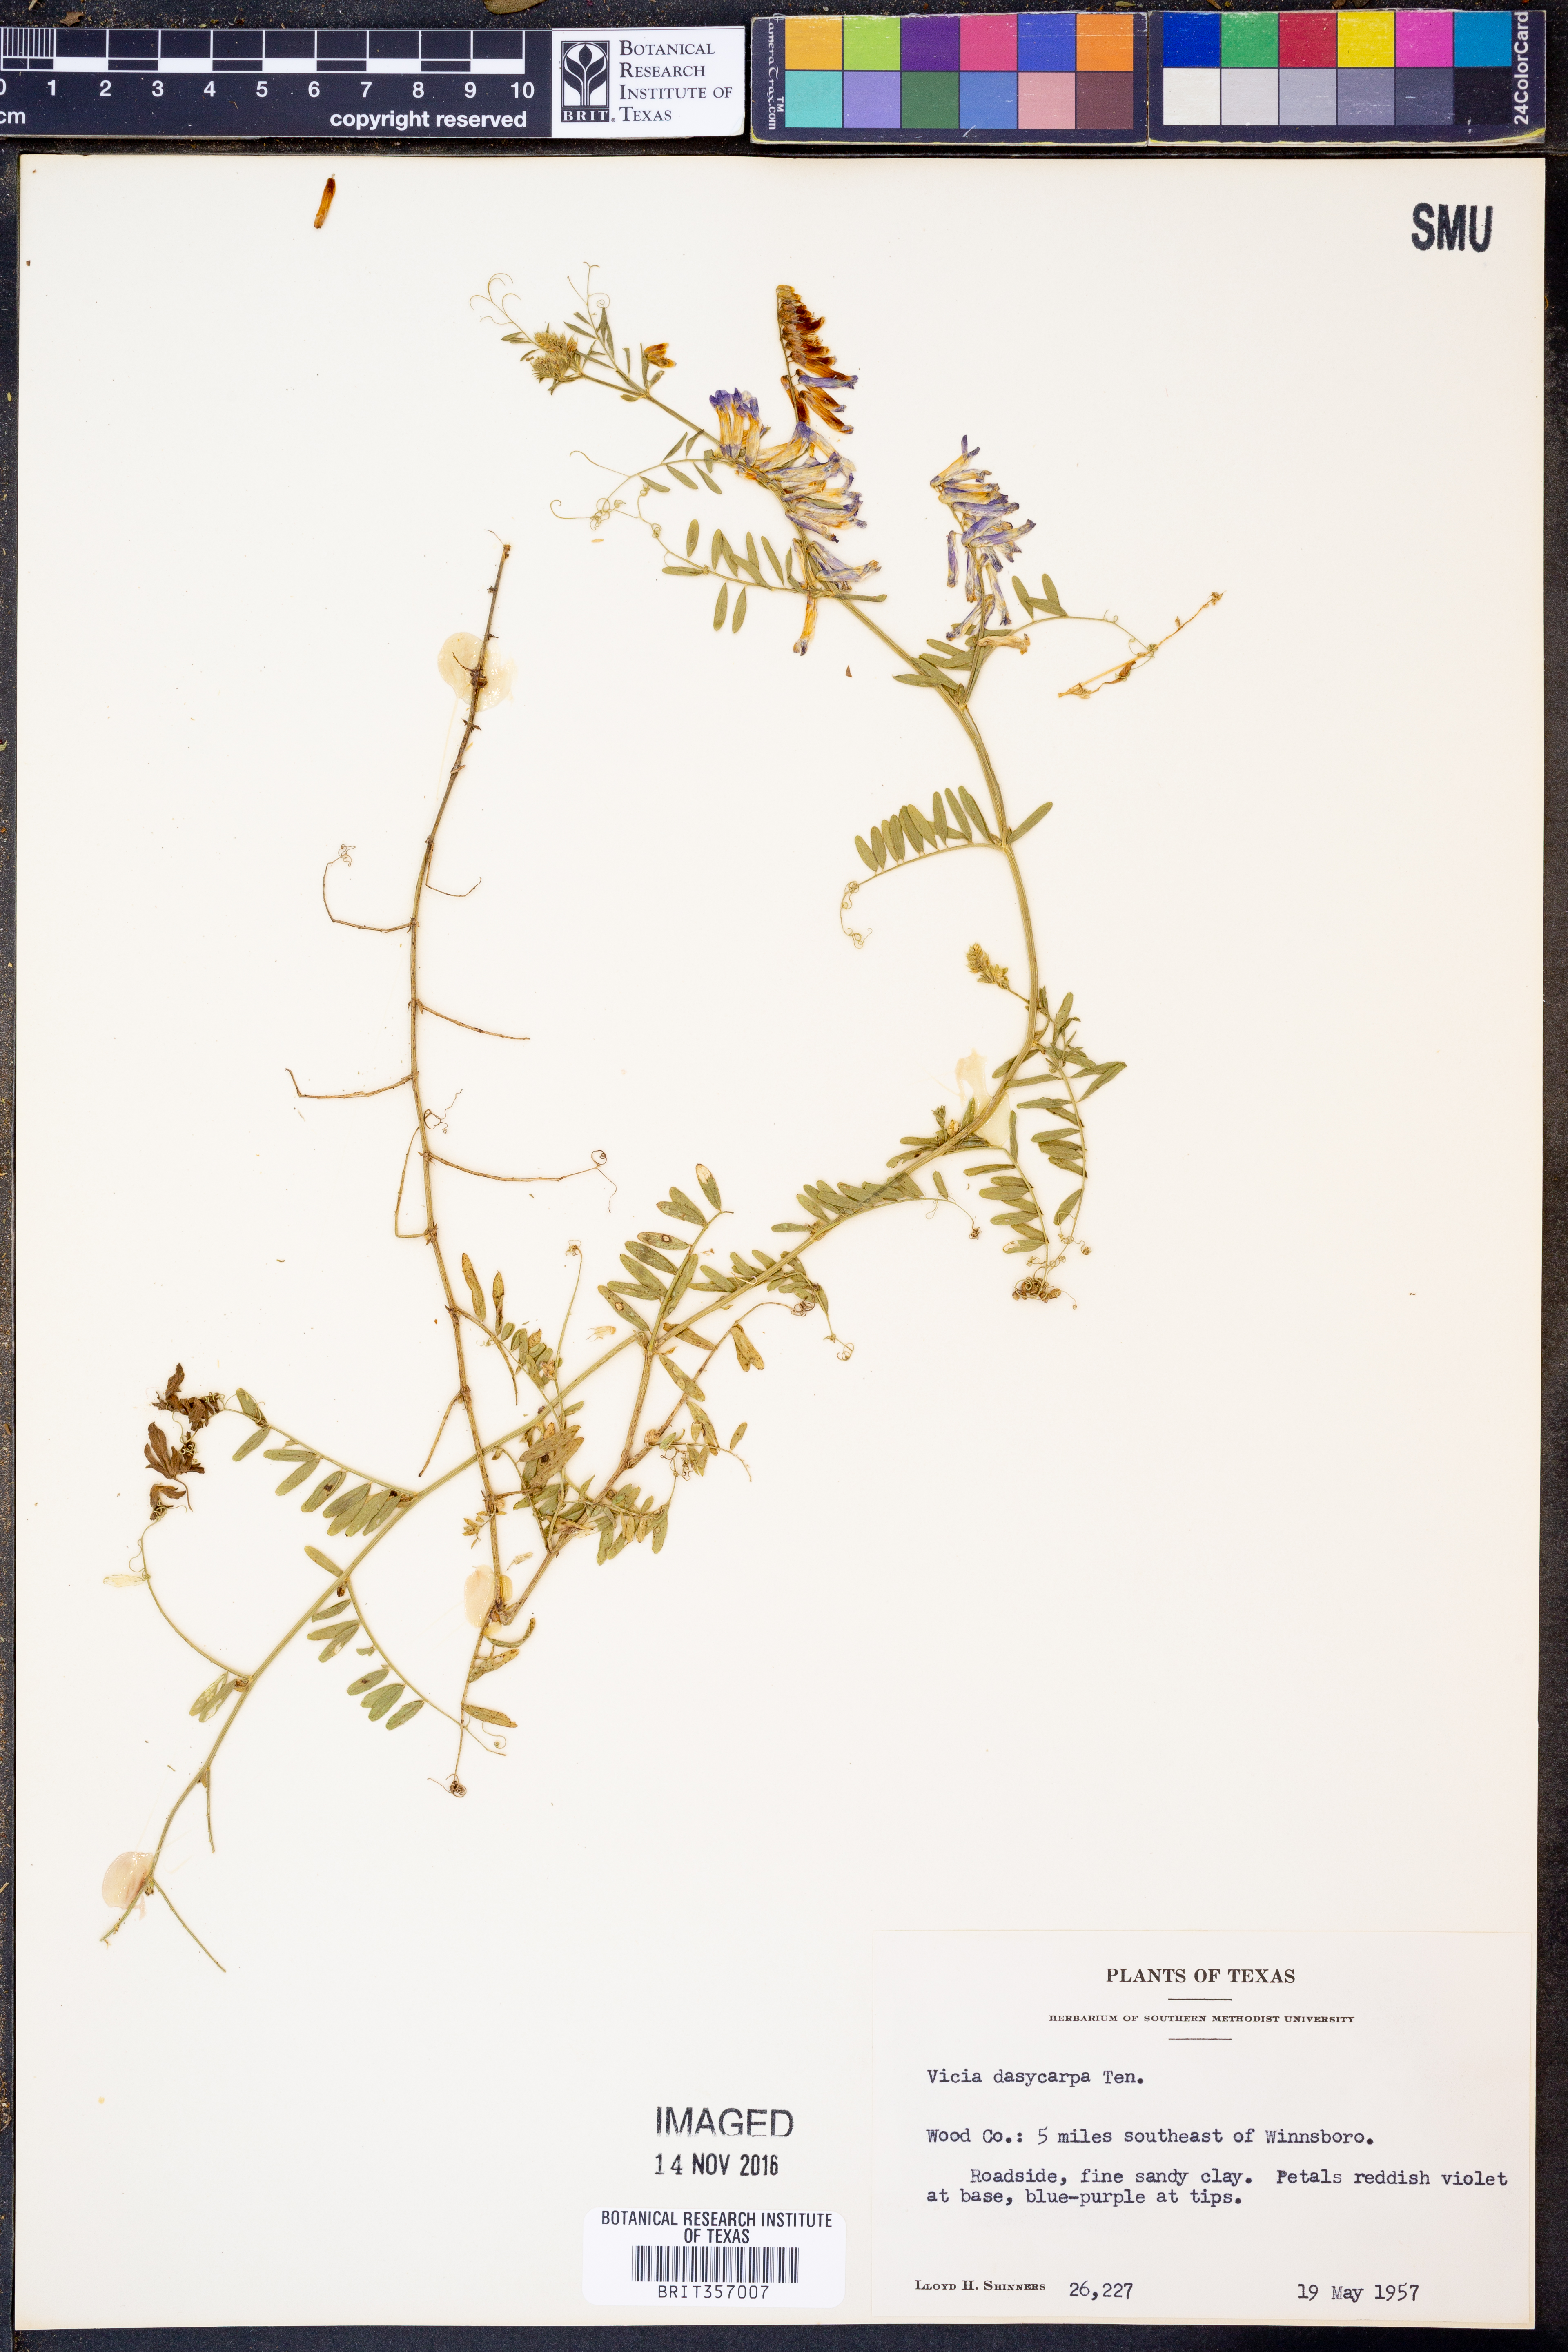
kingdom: Plantae
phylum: Tracheophyta
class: Magnoliopsida
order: Fabales
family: Fabaceae
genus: Vicia
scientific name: Vicia villosa
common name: Fodder vetch
